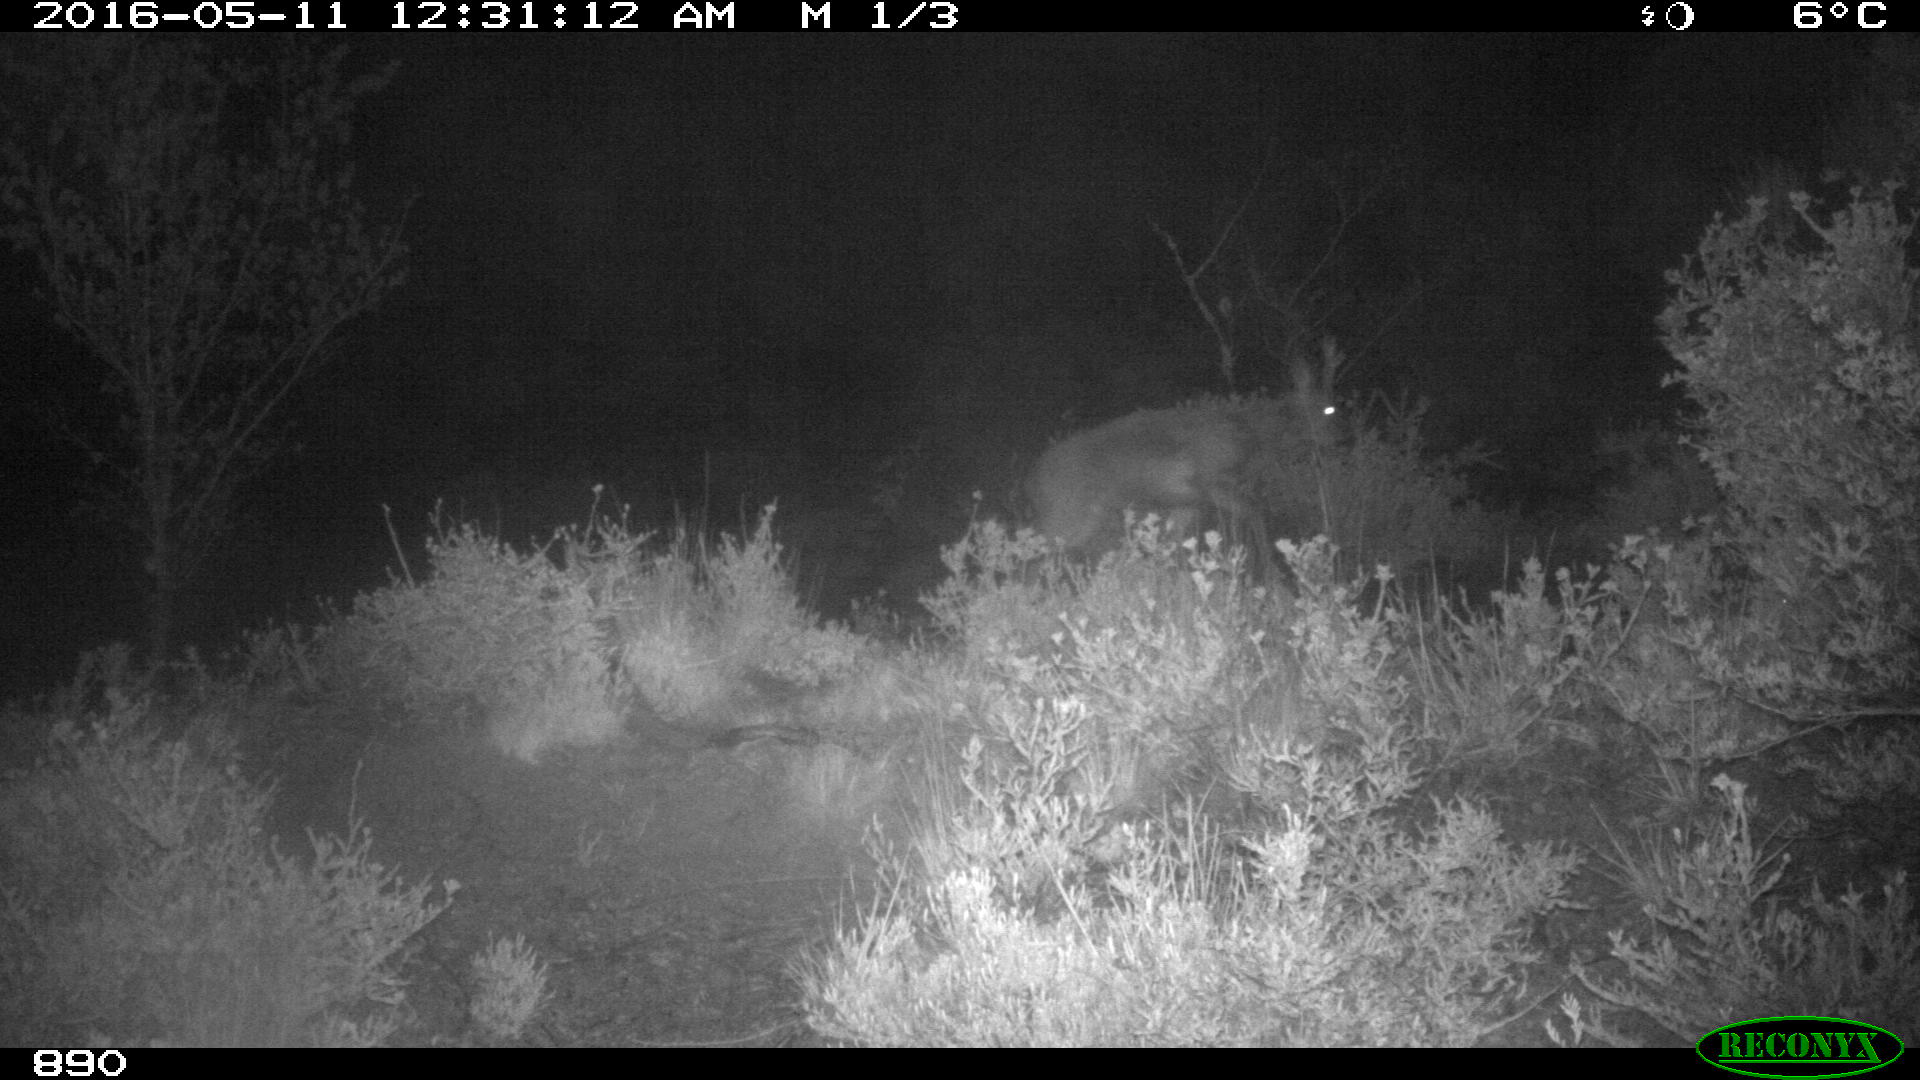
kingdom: Animalia
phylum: Chordata
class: Mammalia
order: Artiodactyla
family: Cervidae
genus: Capreolus
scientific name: Capreolus capreolus
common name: Western roe deer
